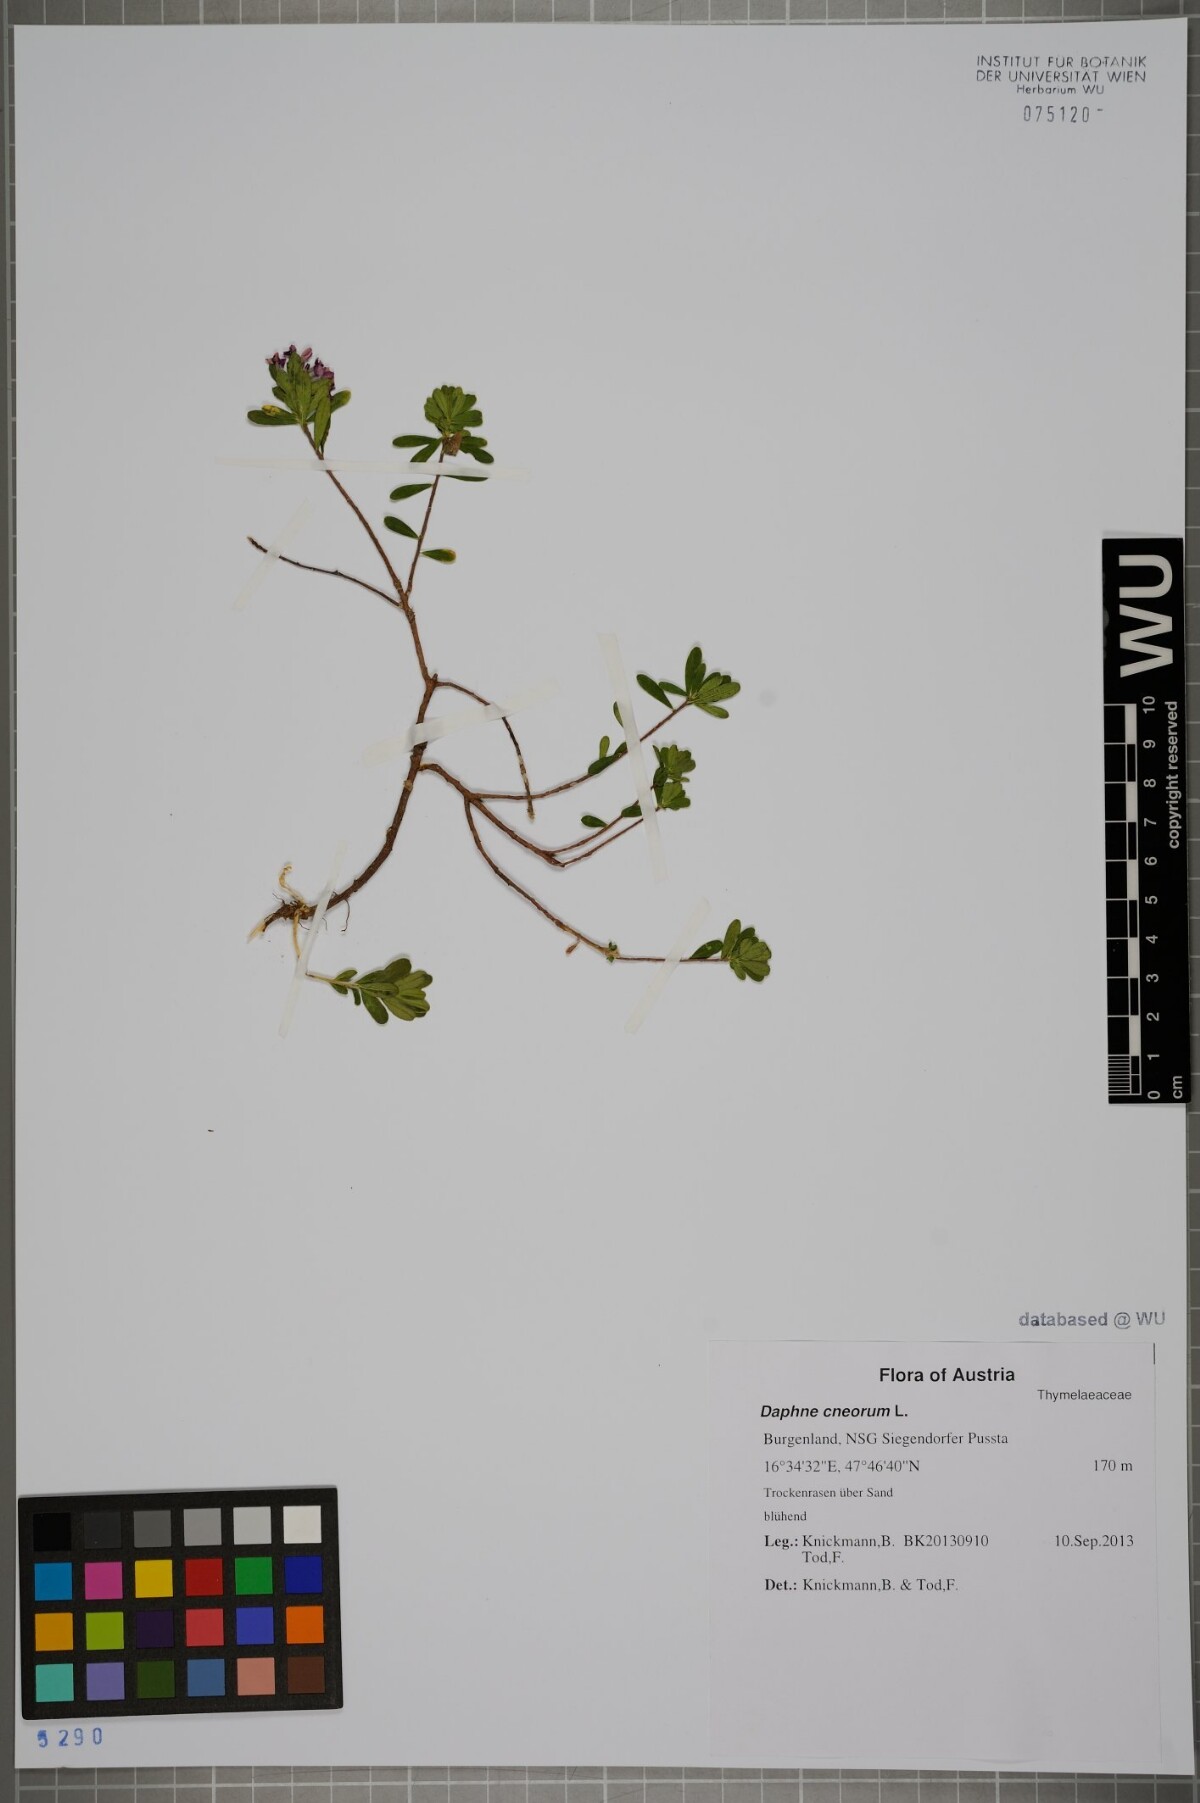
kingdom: Plantae
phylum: Tracheophyta
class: Magnoliopsida
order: Malvales
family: Thymelaeaceae
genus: Daphne
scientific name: Daphne cneorum
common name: Garland-flower
